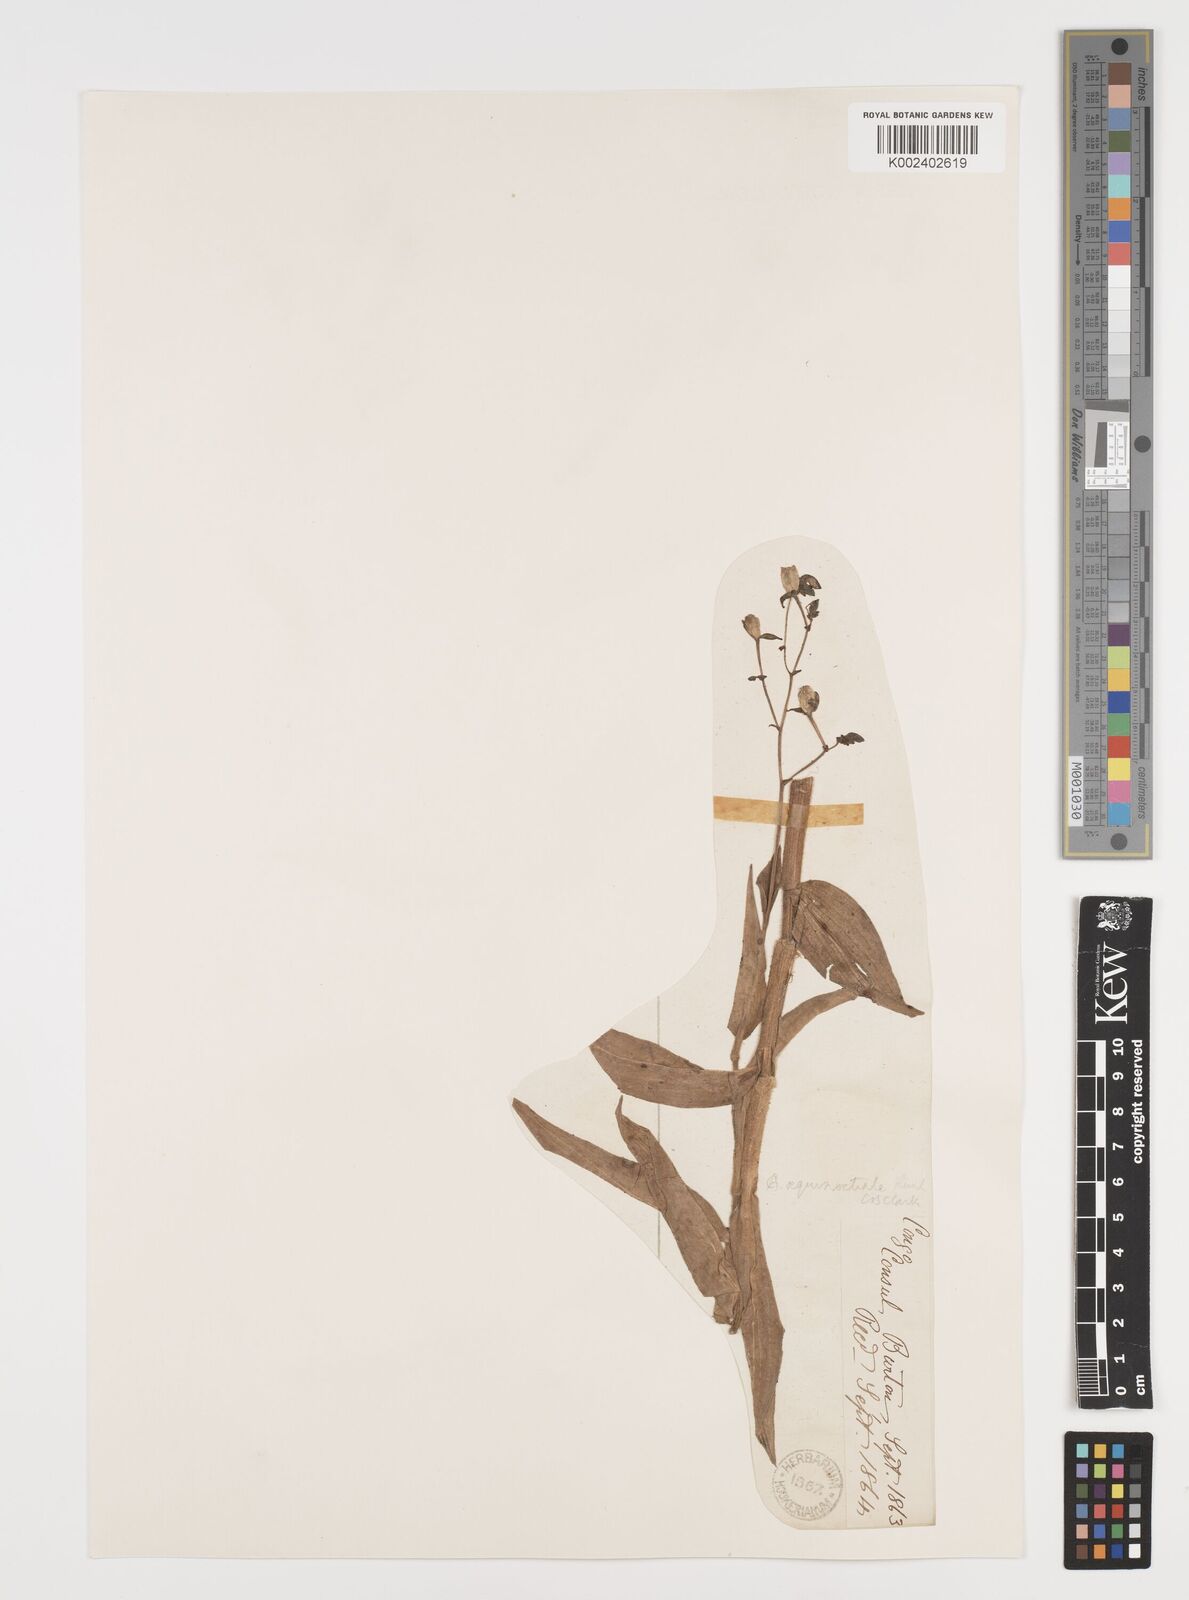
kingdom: Plantae
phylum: Tracheophyta
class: Liliopsida
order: Commelinales
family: Commelinaceae
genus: Aneilema
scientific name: Aneilema aequinoctiale
